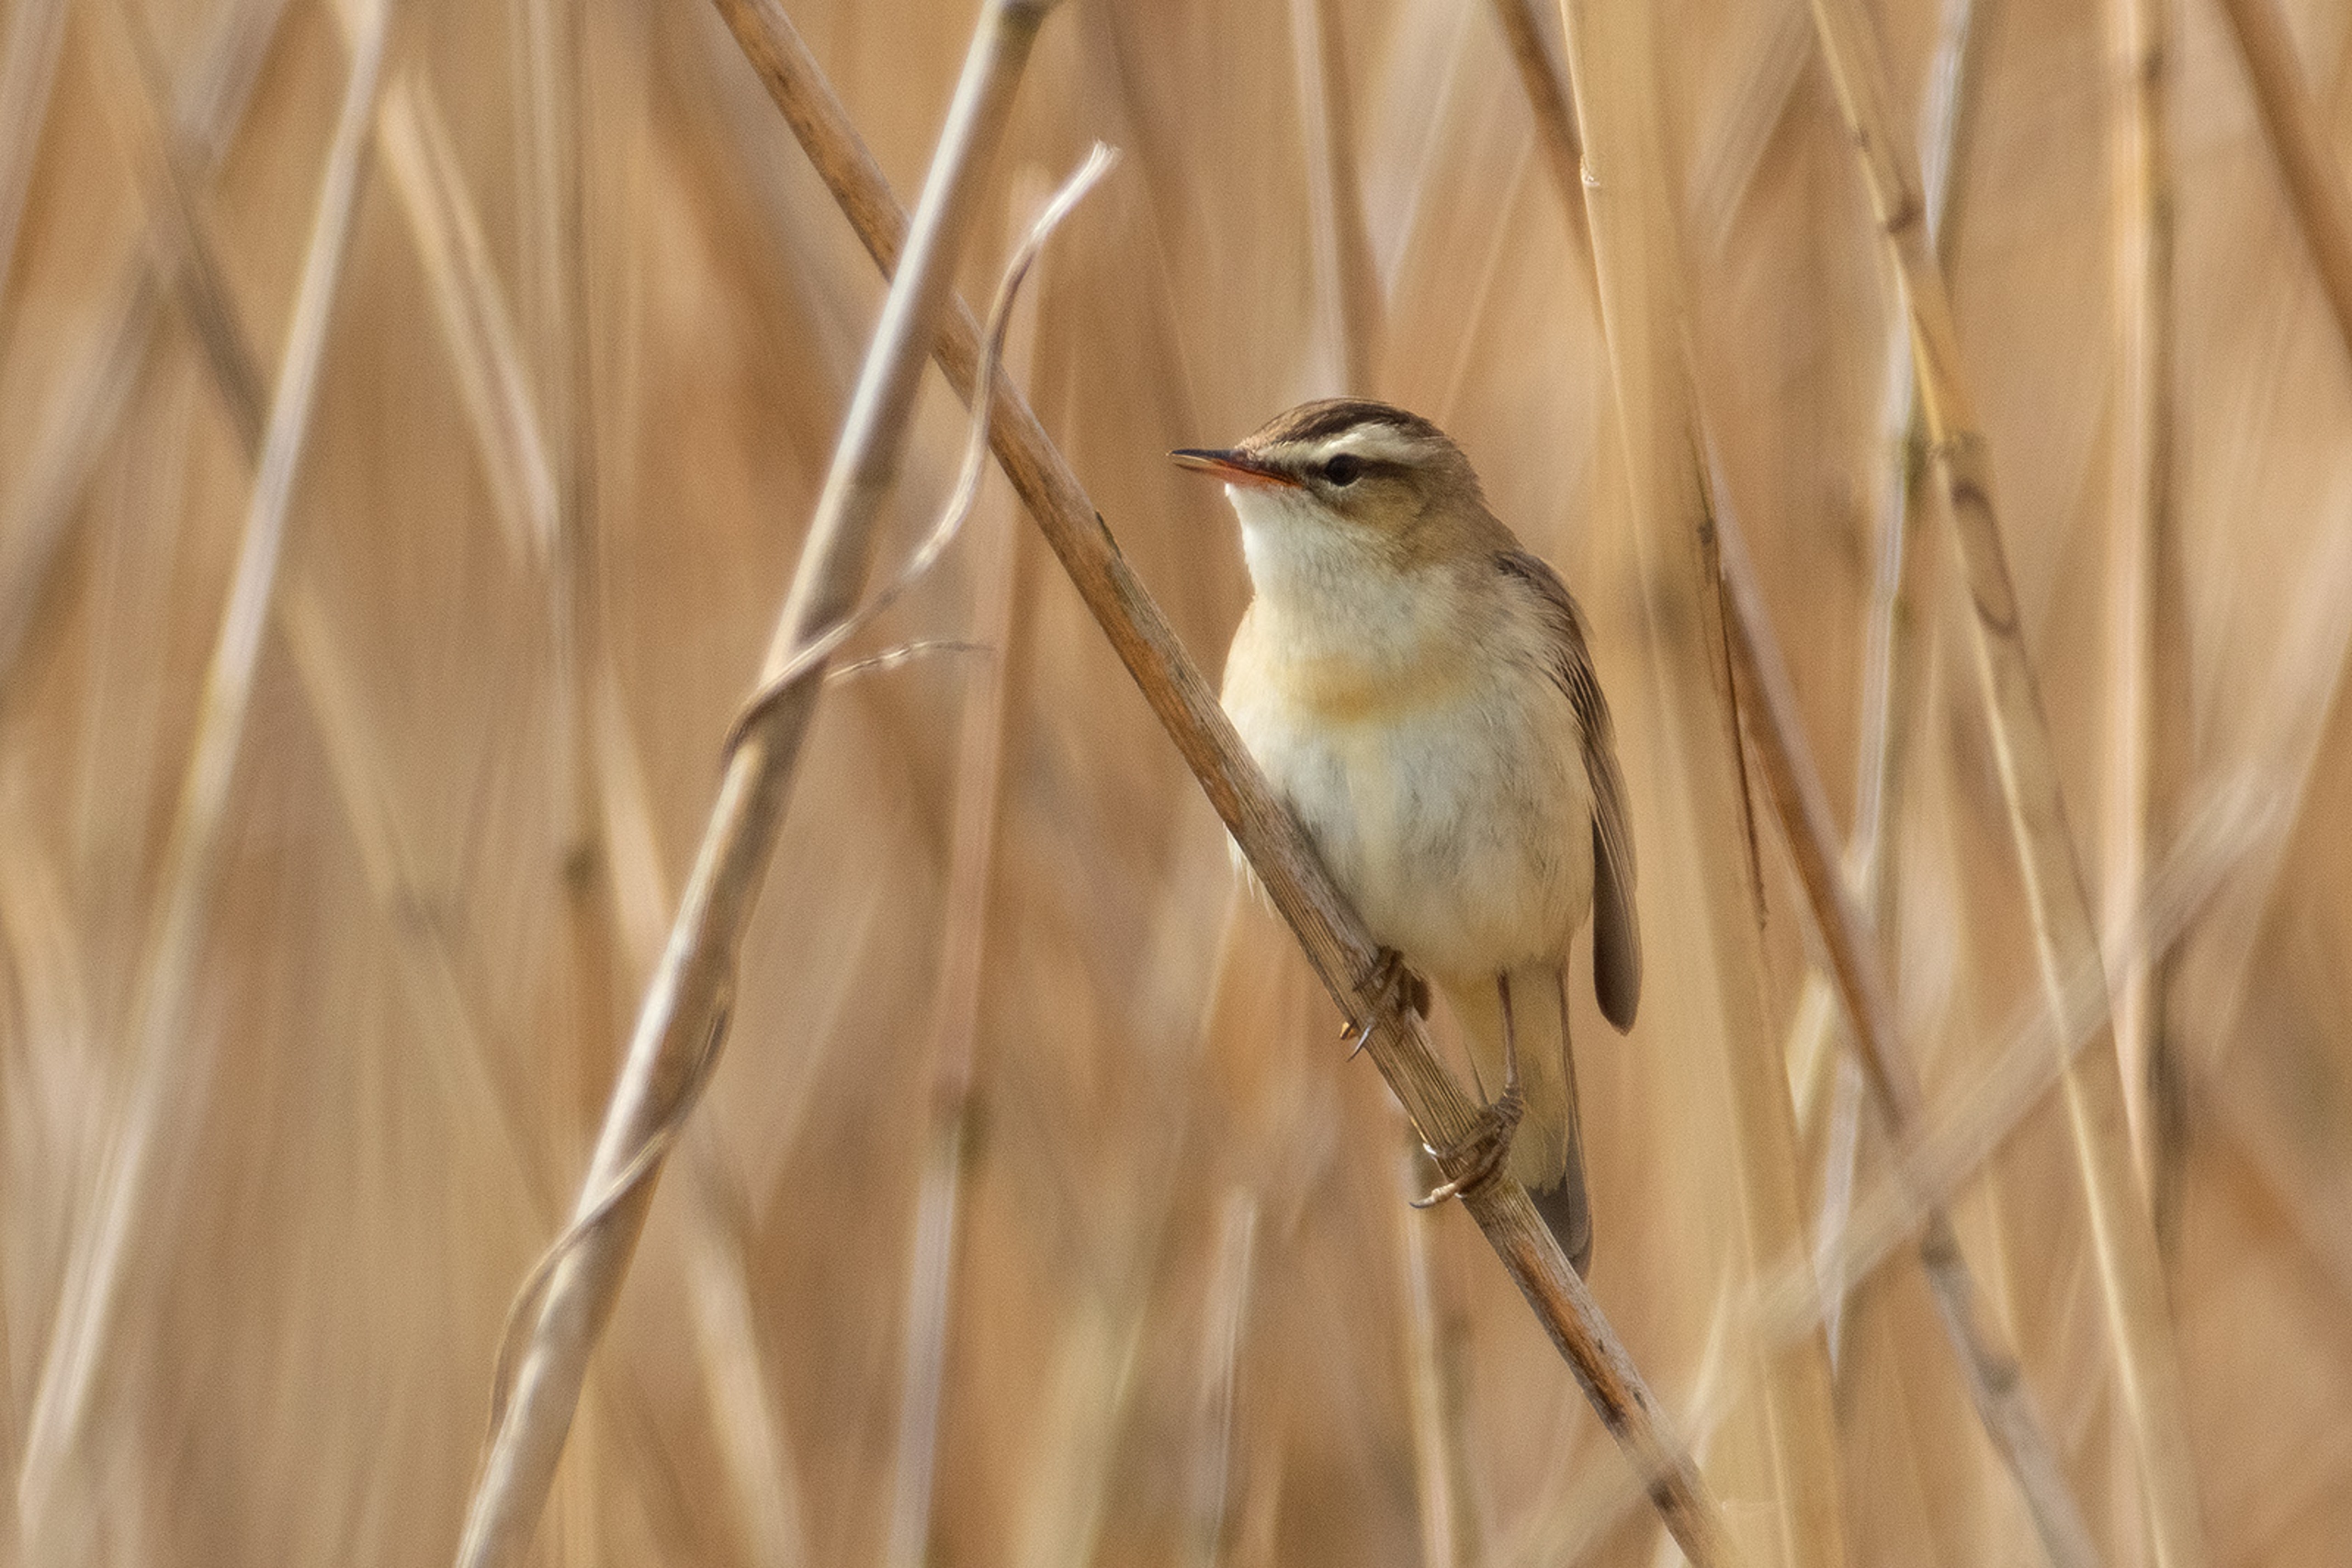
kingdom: Animalia
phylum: Chordata
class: Aves
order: Passeriformes
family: Acrocephalidae
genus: Acrocephalus
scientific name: Acrocephalus schoenobaenus
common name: Sivsanger
